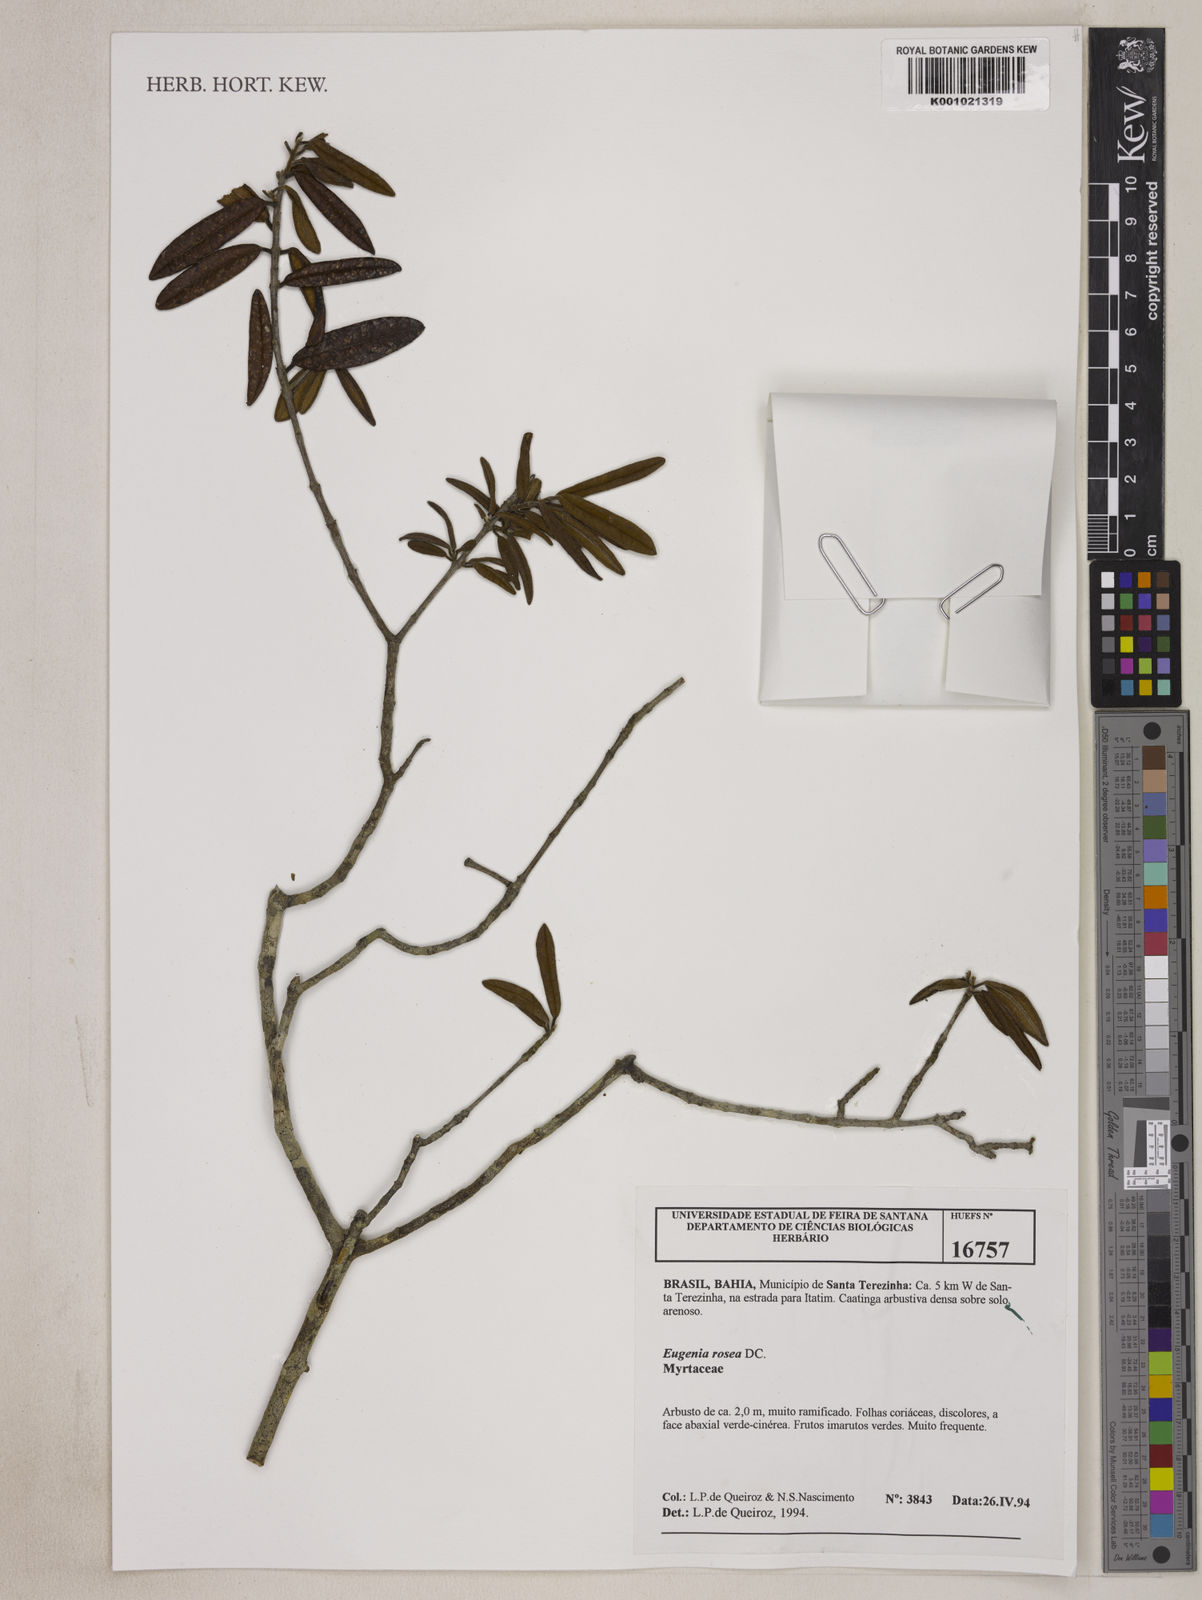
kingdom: Plantae
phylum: Tracheophyta
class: Magnoliopsida
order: Myrtales
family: Myrtaceae
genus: Eugenia
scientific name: Eugenia rosea
